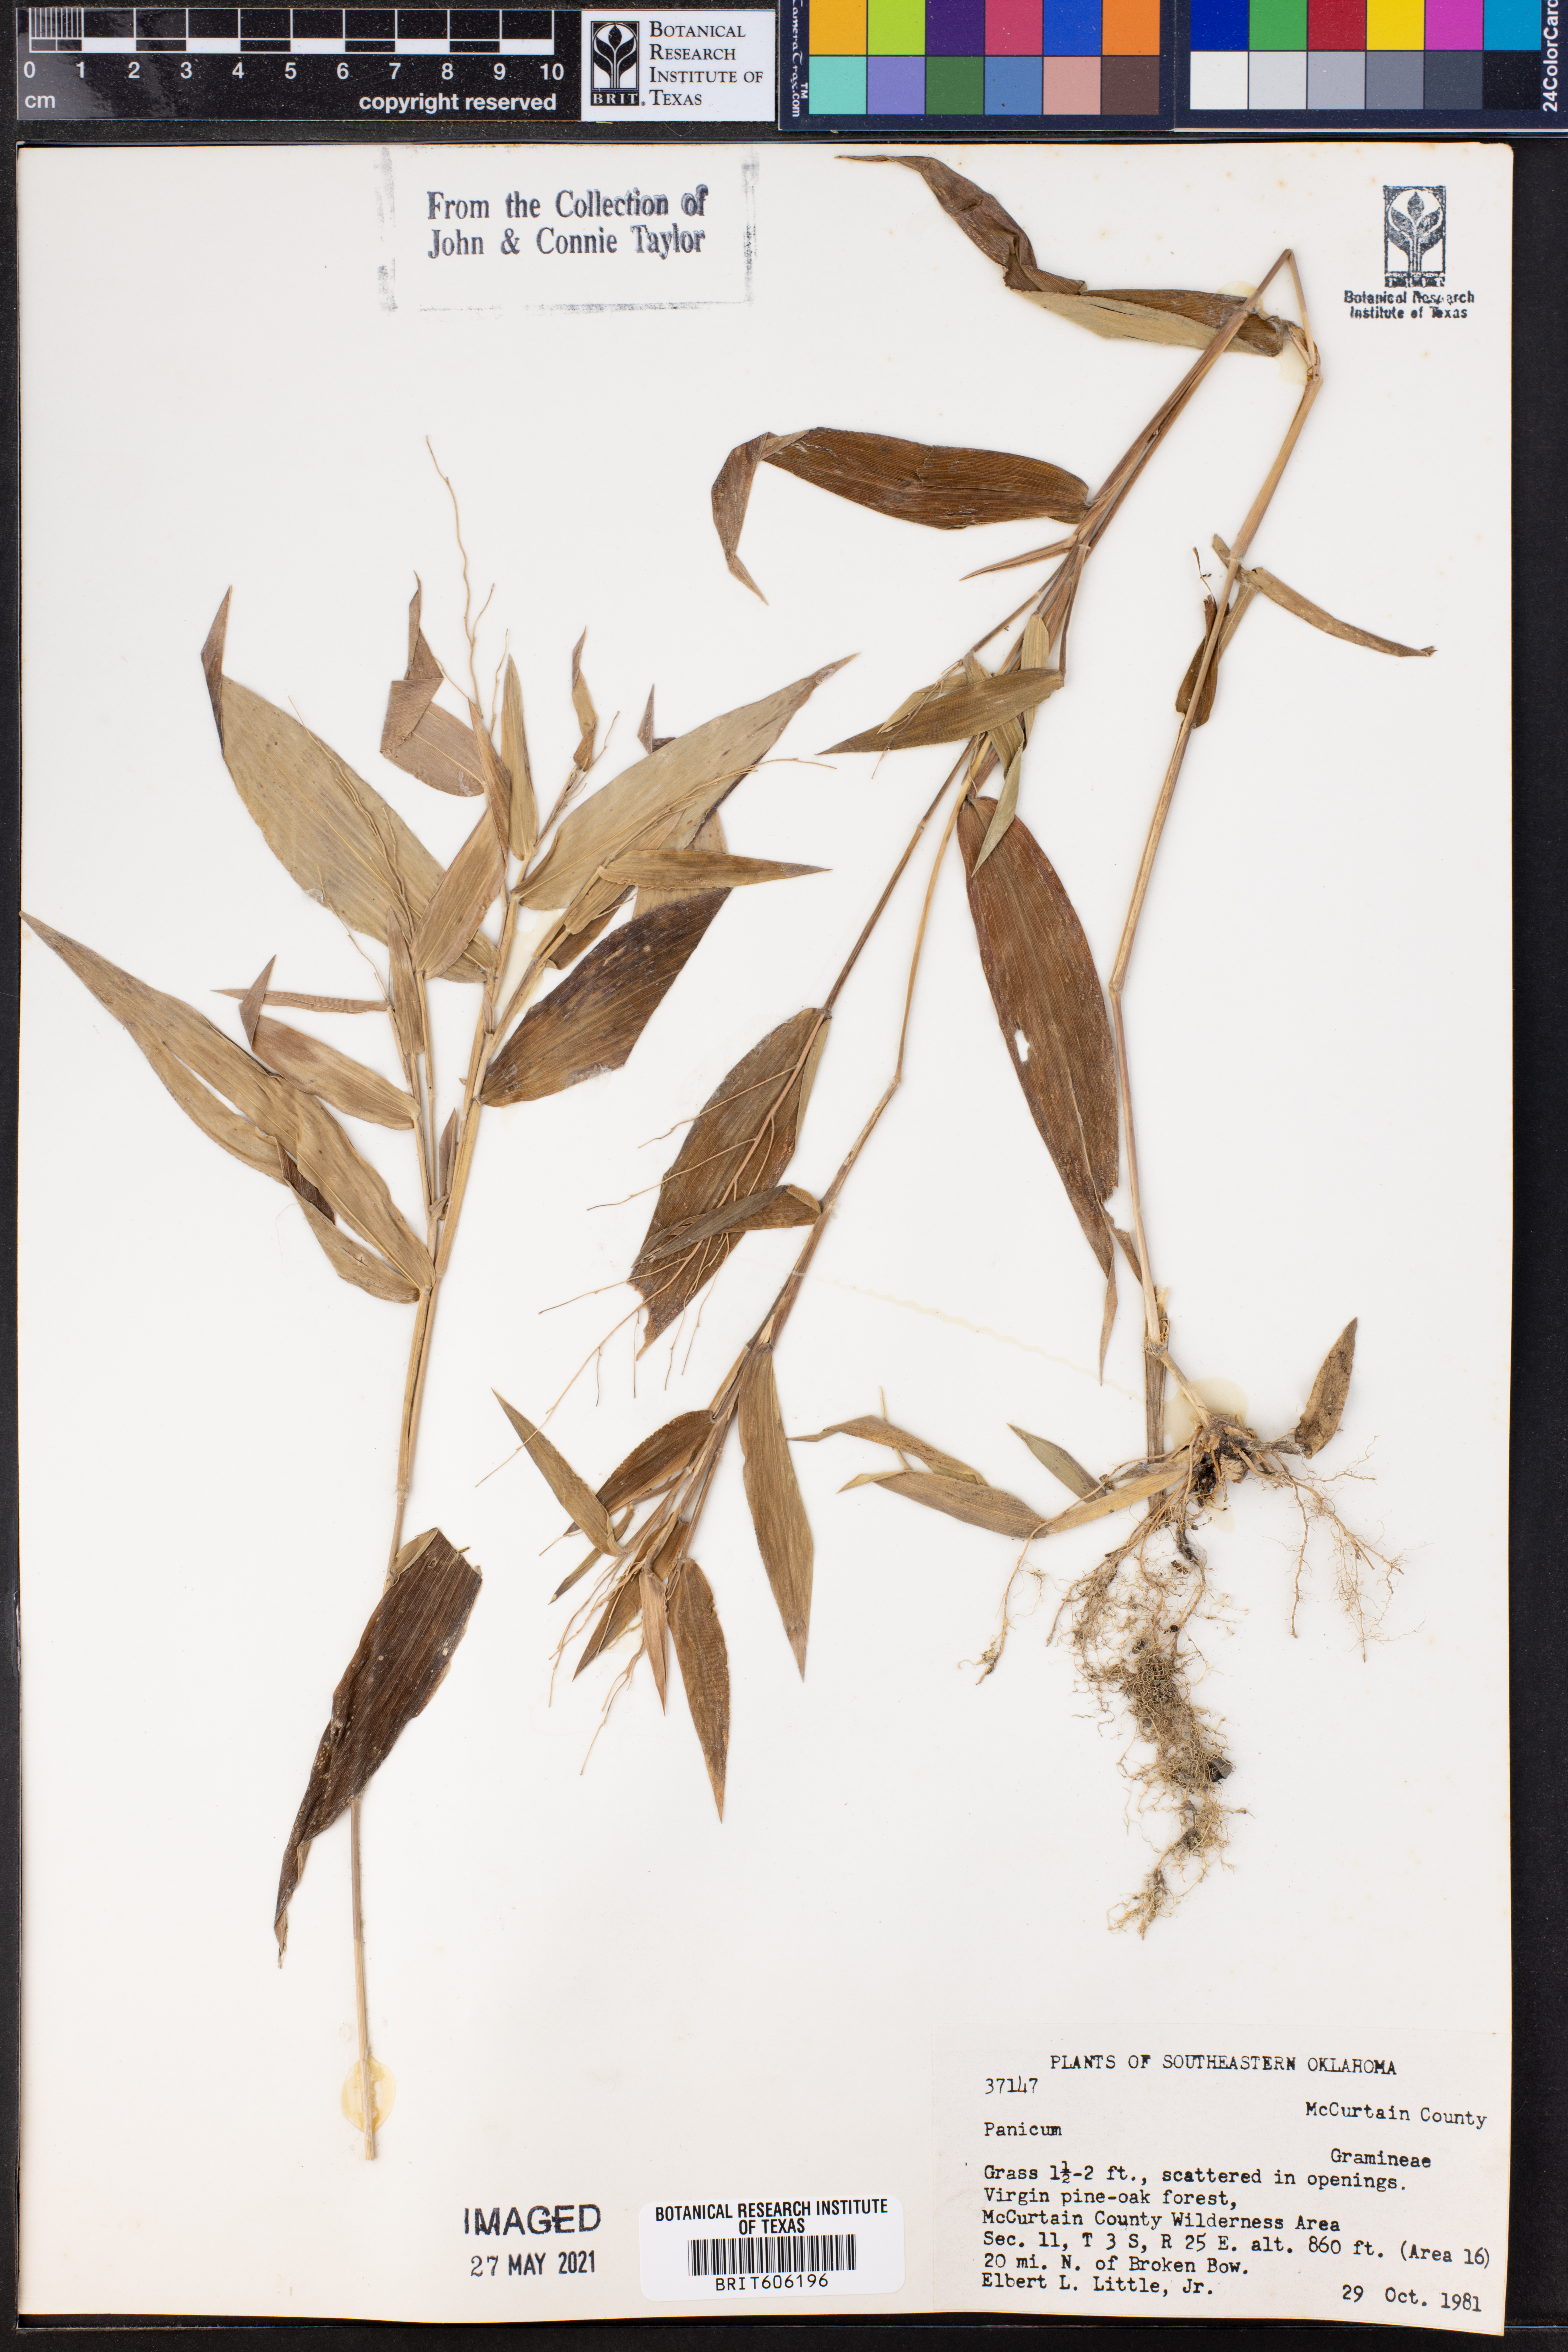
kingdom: Plantae
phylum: Tracheophyta
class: Liliopsida
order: Poales
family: Poaceae
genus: Panicum
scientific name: Panicum
